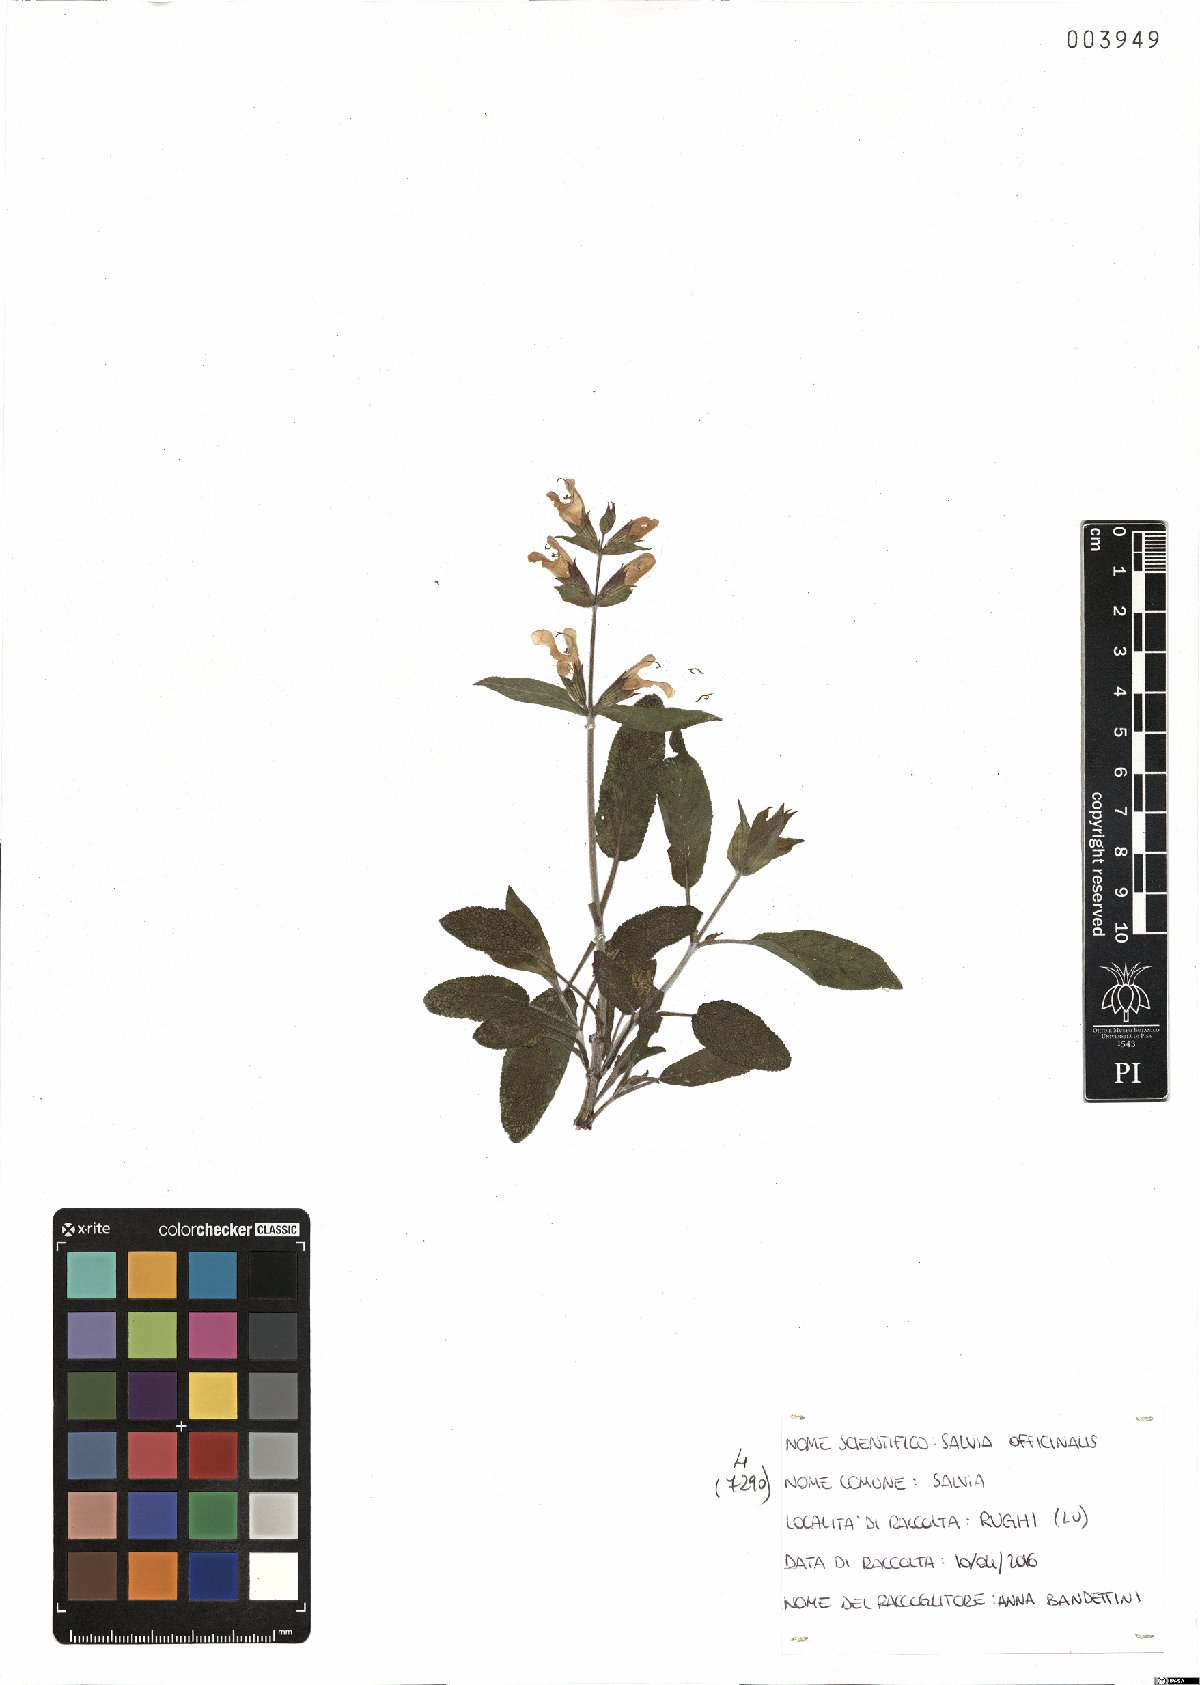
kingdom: Plantae
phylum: Tracheophyta
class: Magnoliopsida
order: Lamiales
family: Lamiaceae
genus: Salvia
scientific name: Salvia officinalis
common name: Sage
